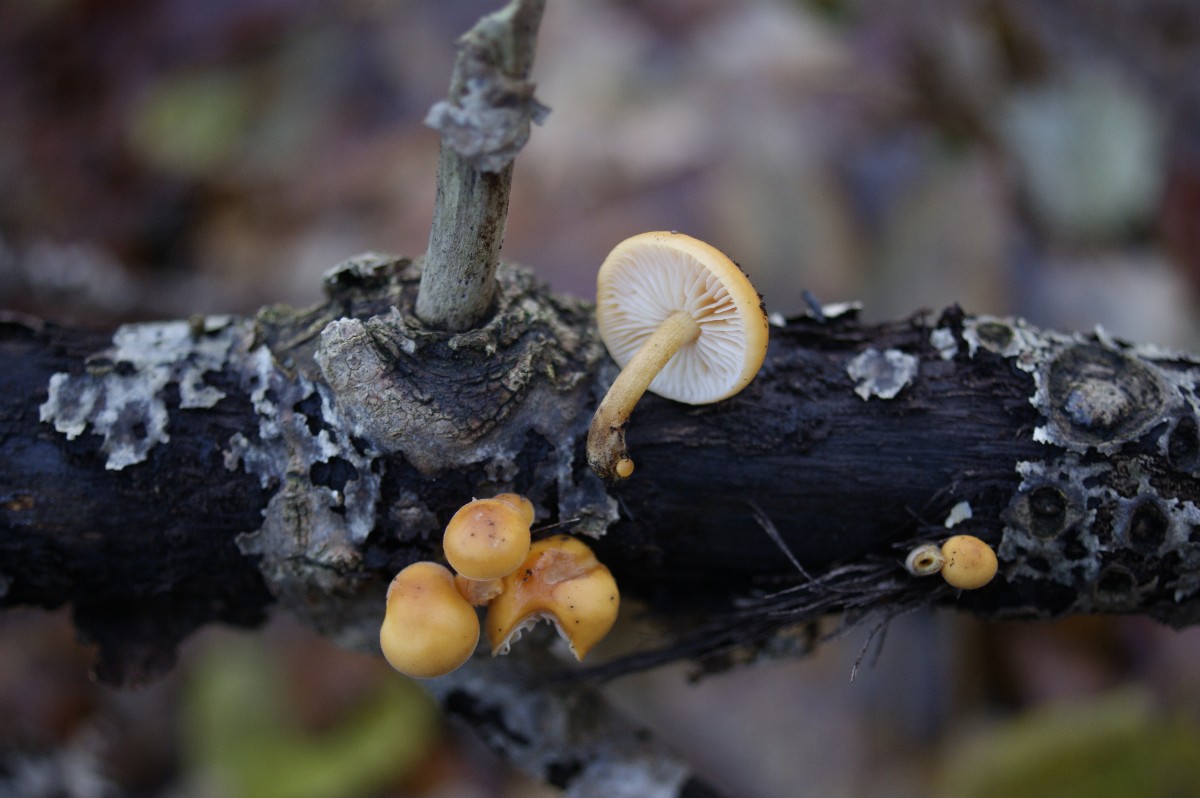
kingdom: Fungi
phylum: Basidiomycota
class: Agaricomycetes
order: Agaricales
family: Physalacriaceae
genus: Flammulina
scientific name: Flammulina velutipes
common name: gul fløjlsfod
